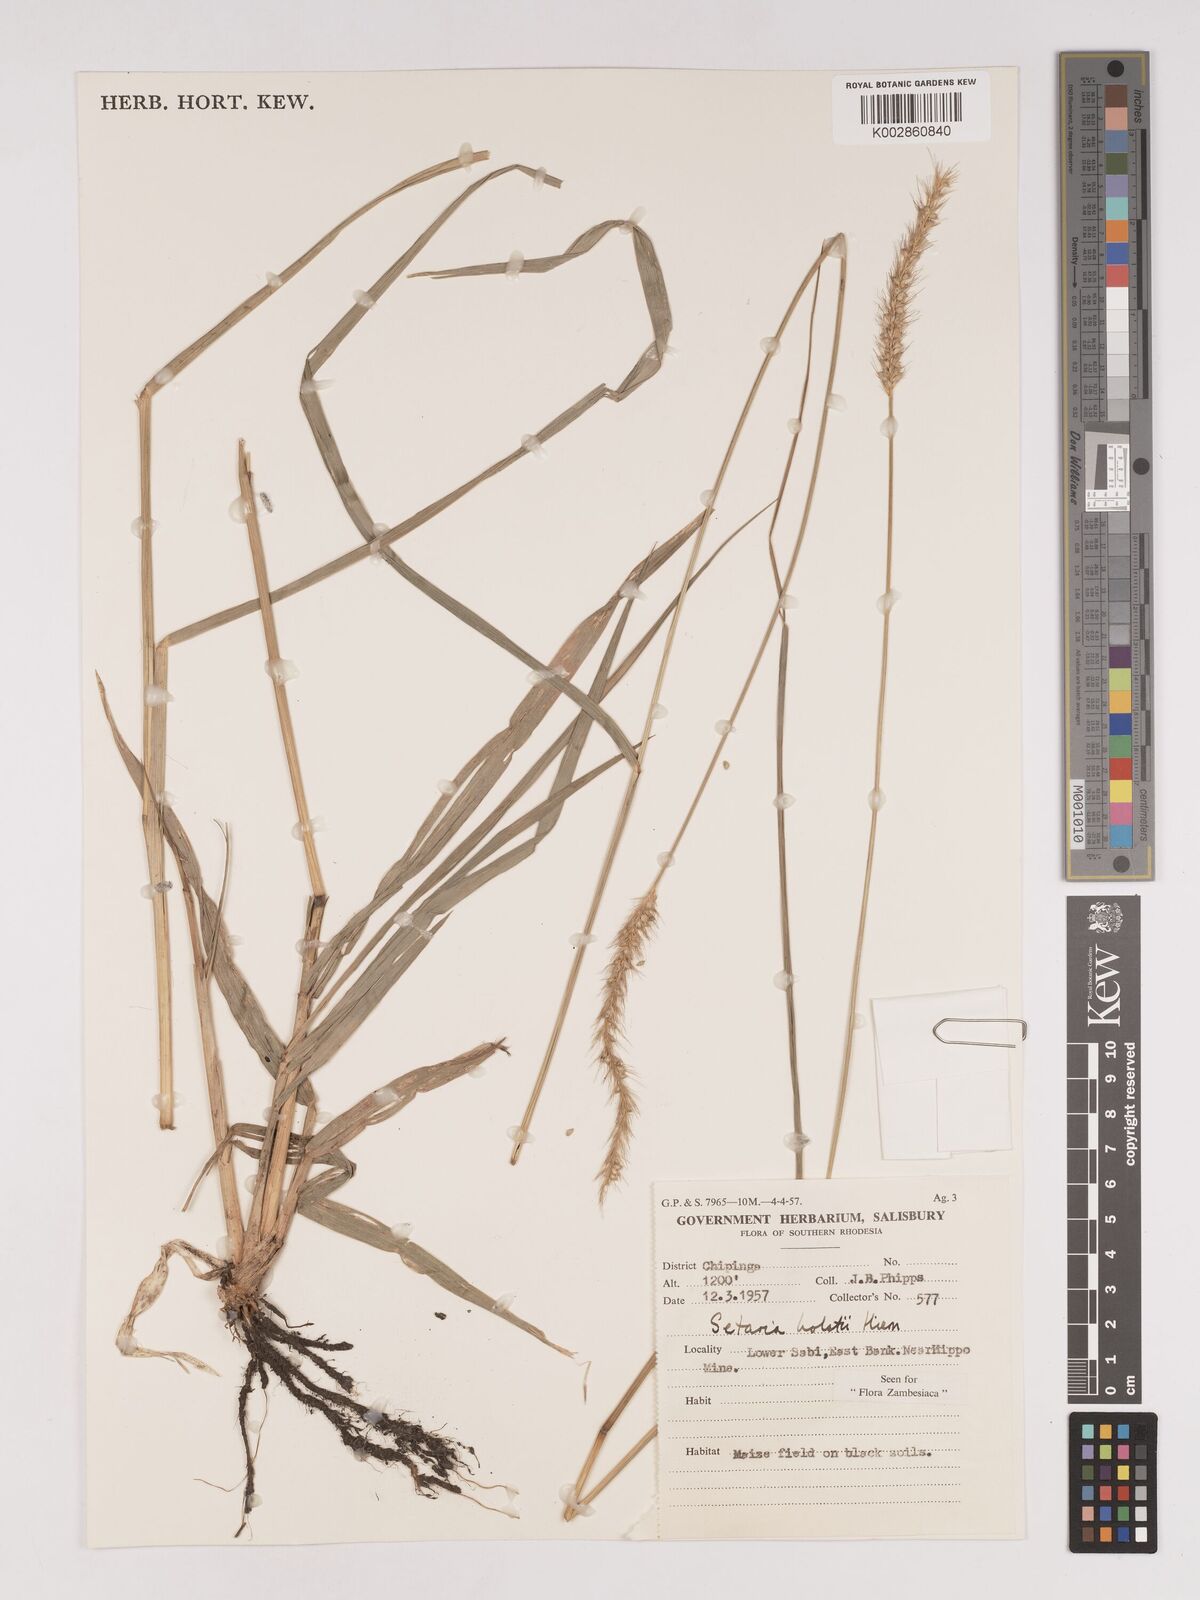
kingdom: Plantae
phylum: Tracheophyta
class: Liliopsida
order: Poales
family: Poaceae
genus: Setaria
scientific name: Setaria incrassata
